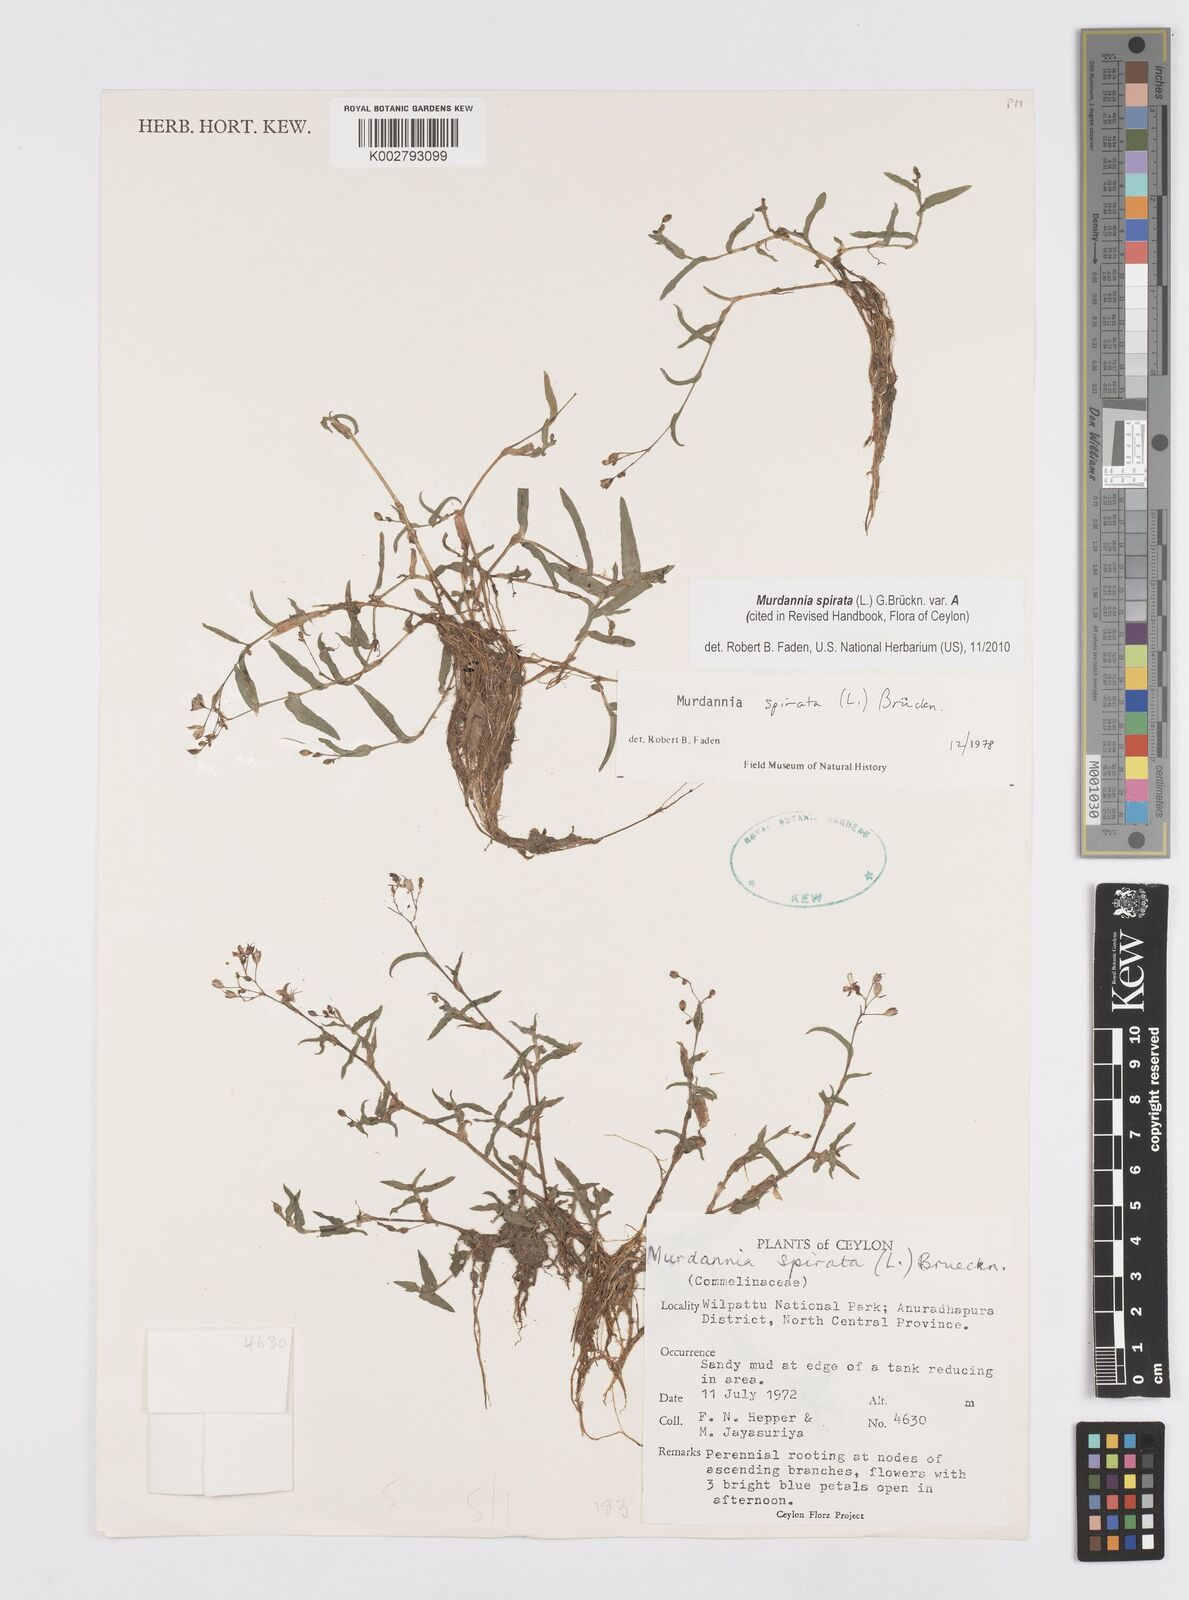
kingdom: Plantae
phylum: Tracheophyta
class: Liliopsida
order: Commelinales
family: Commelinaceae
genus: Murdannia
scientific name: Murdannia spirata
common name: Asiatic dewflower
